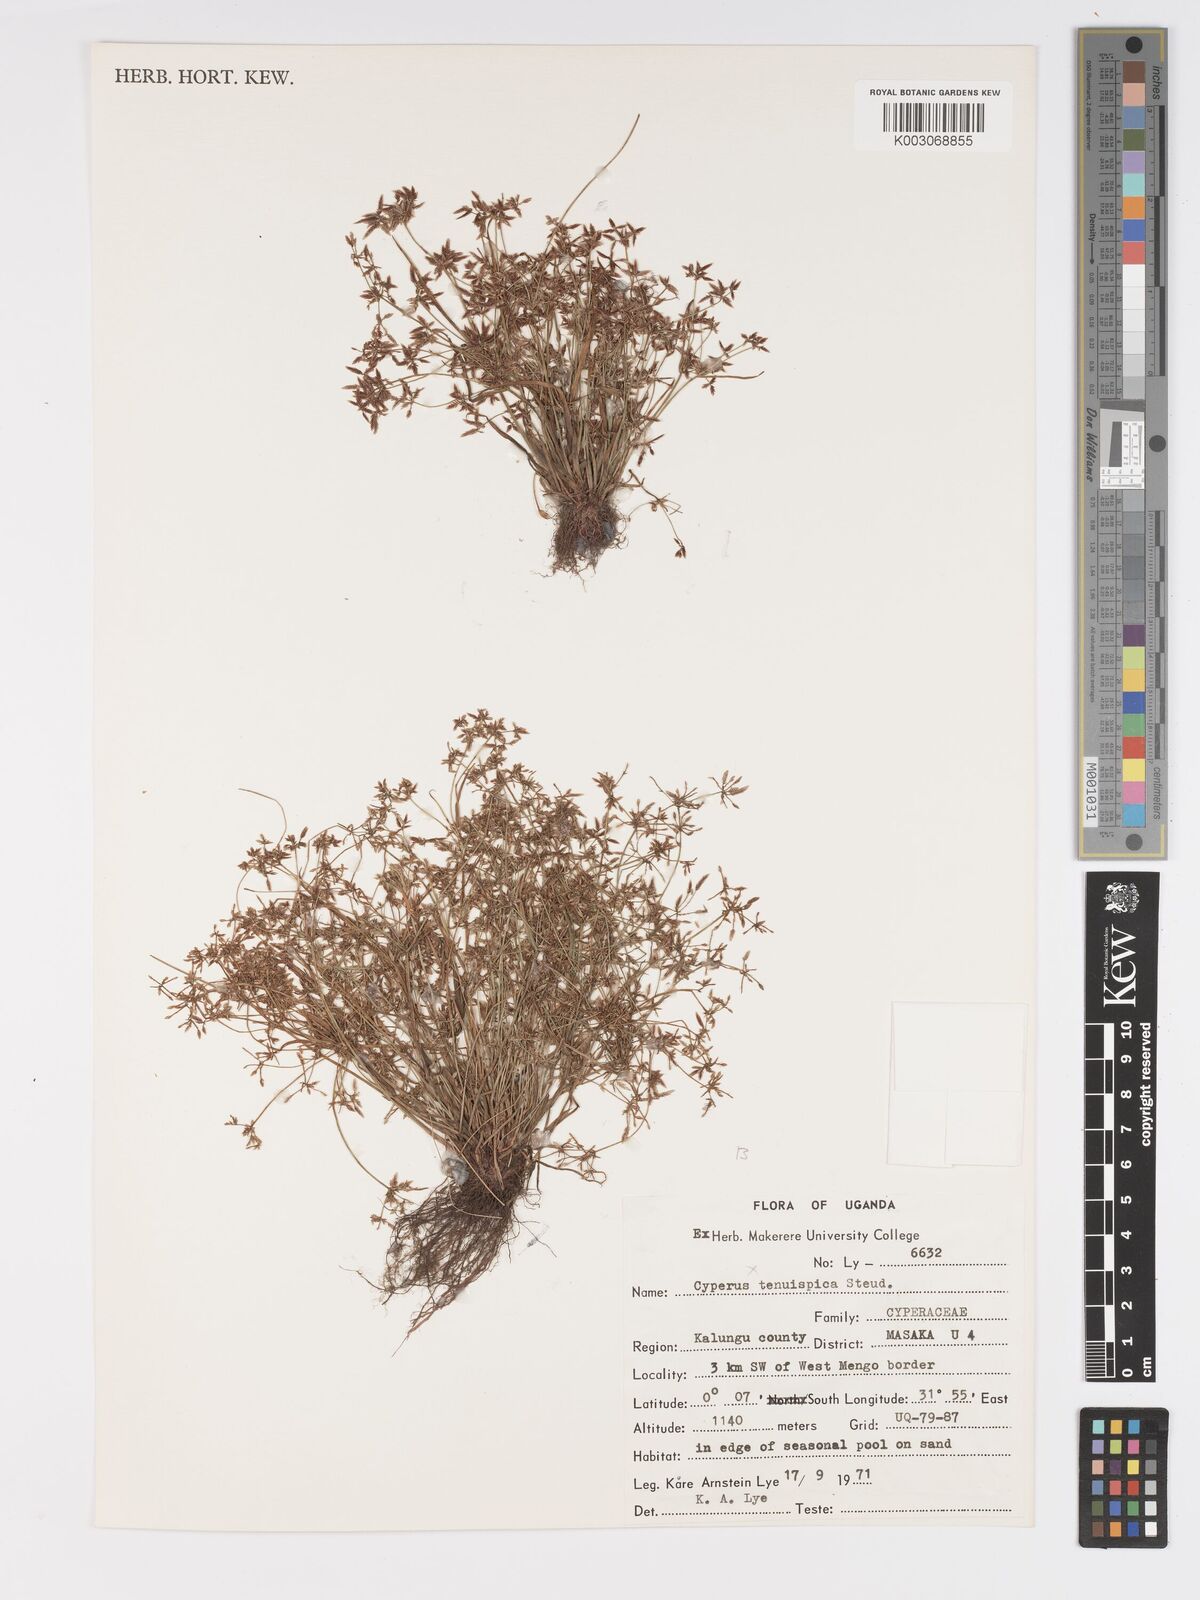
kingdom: Plantae
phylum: Tracheophyta
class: Liliopsida
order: Poales
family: Cyperaceae
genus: Cyperus
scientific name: Cyperus tenuispica
